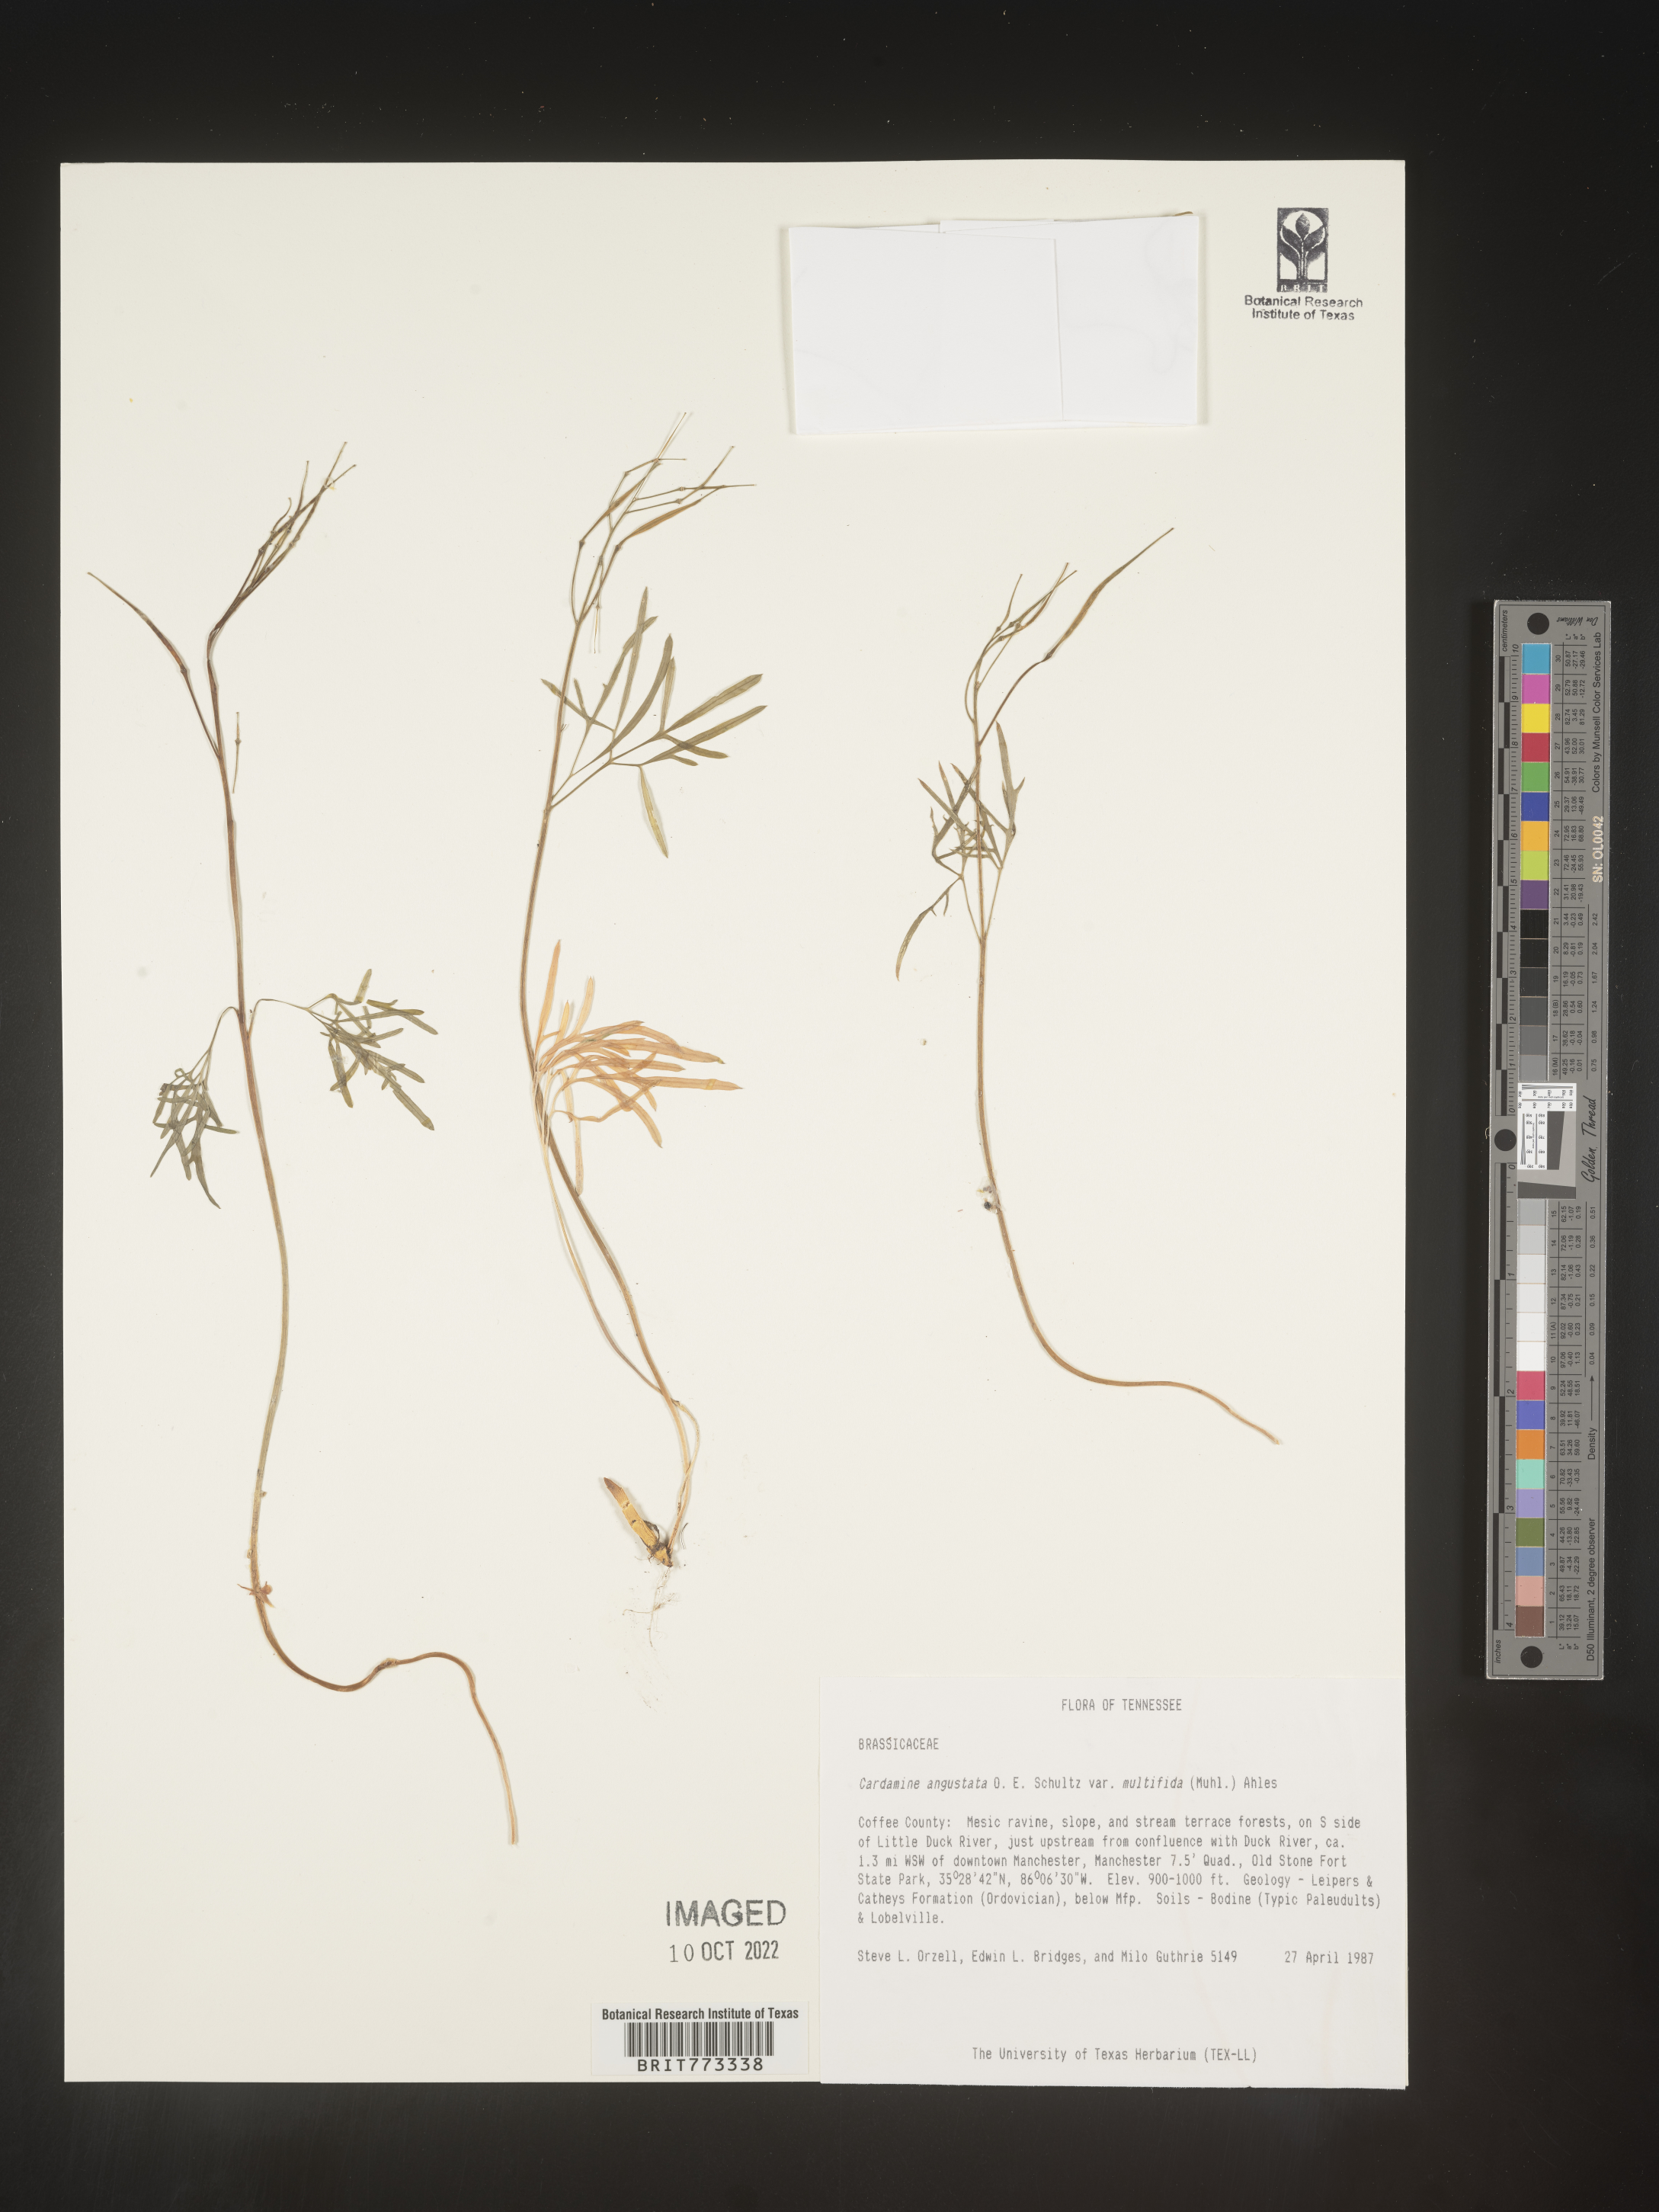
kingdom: Plantae
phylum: Tracheophyta
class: Magnoliopsida
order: Brassicales
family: Brassicaceae
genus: Cardamine
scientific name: Cardamine
